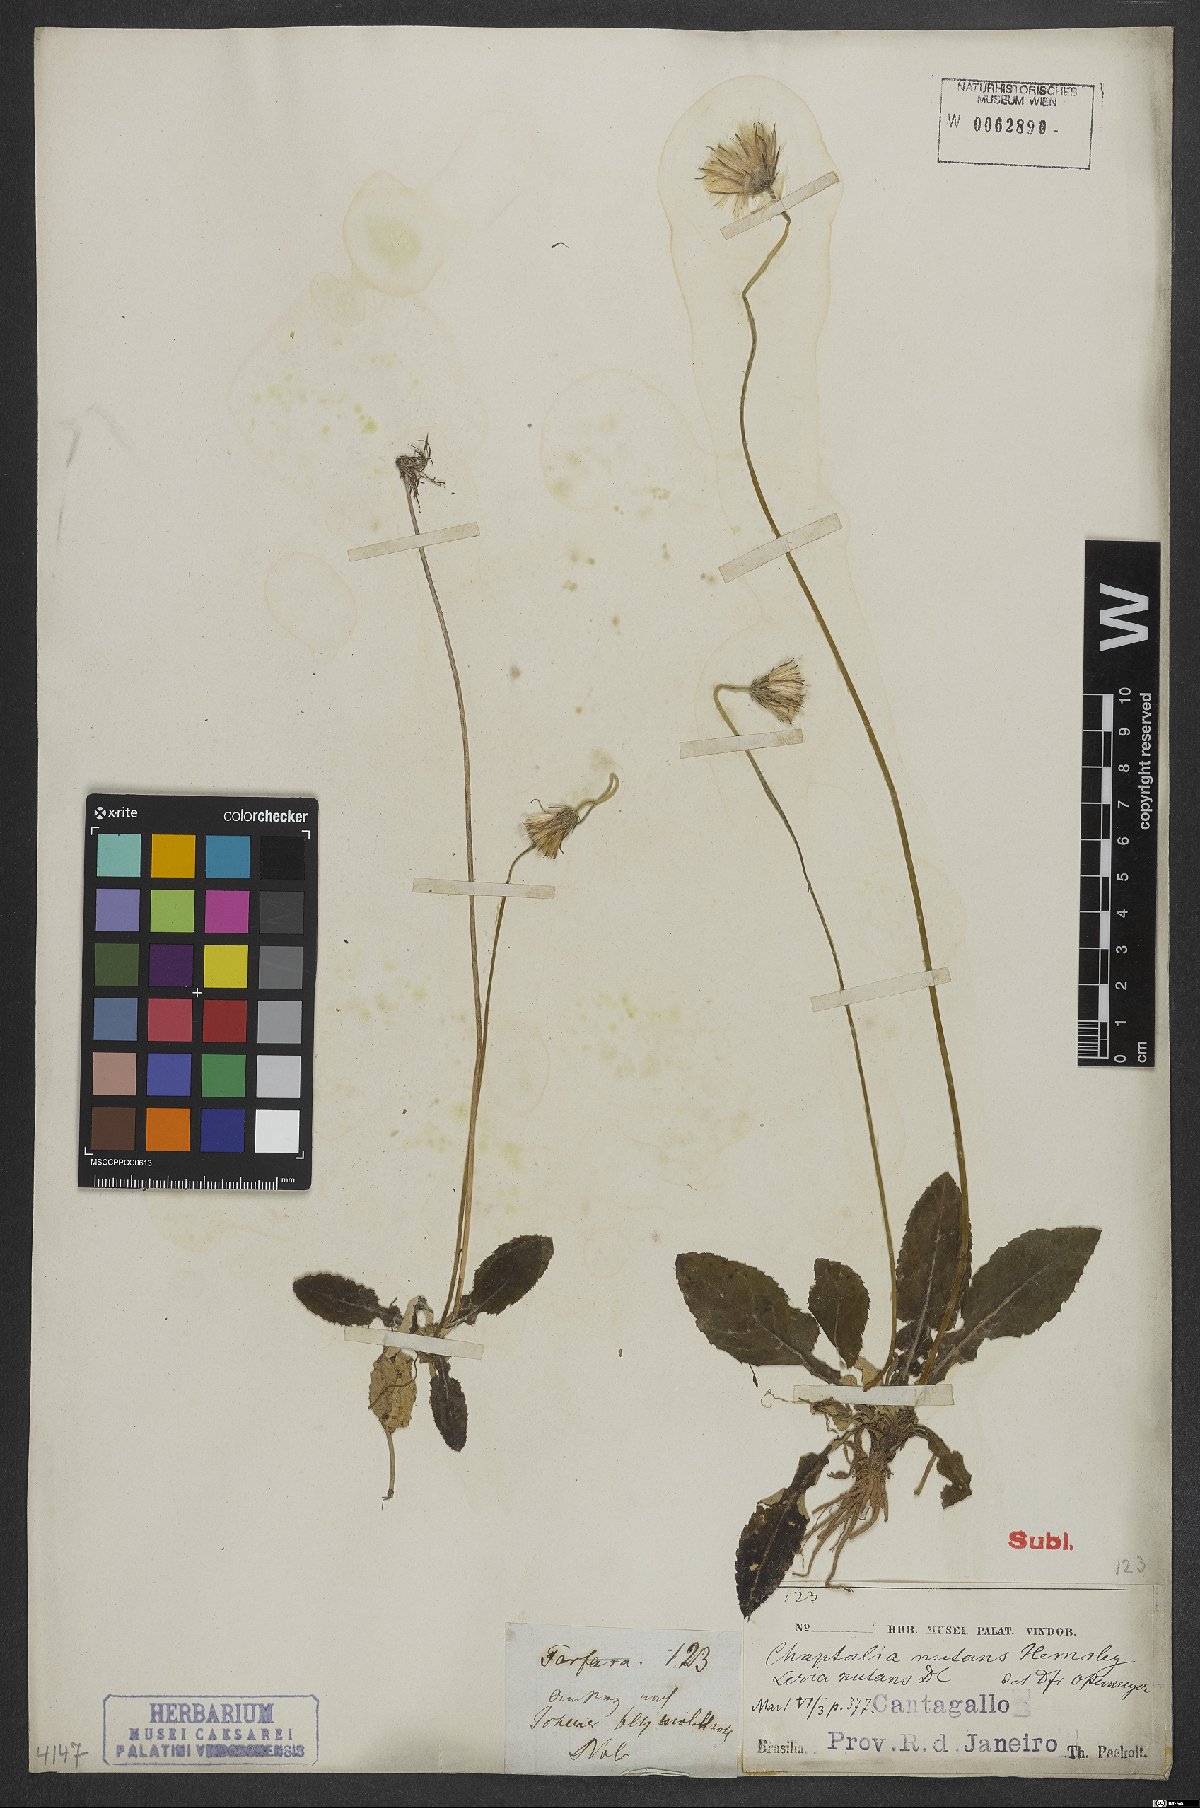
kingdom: Plantae
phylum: Tracheophyta
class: Magnoliopsida
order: Asterales
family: Asteraceae
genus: Chaptalia
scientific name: Chaptalia nutans
